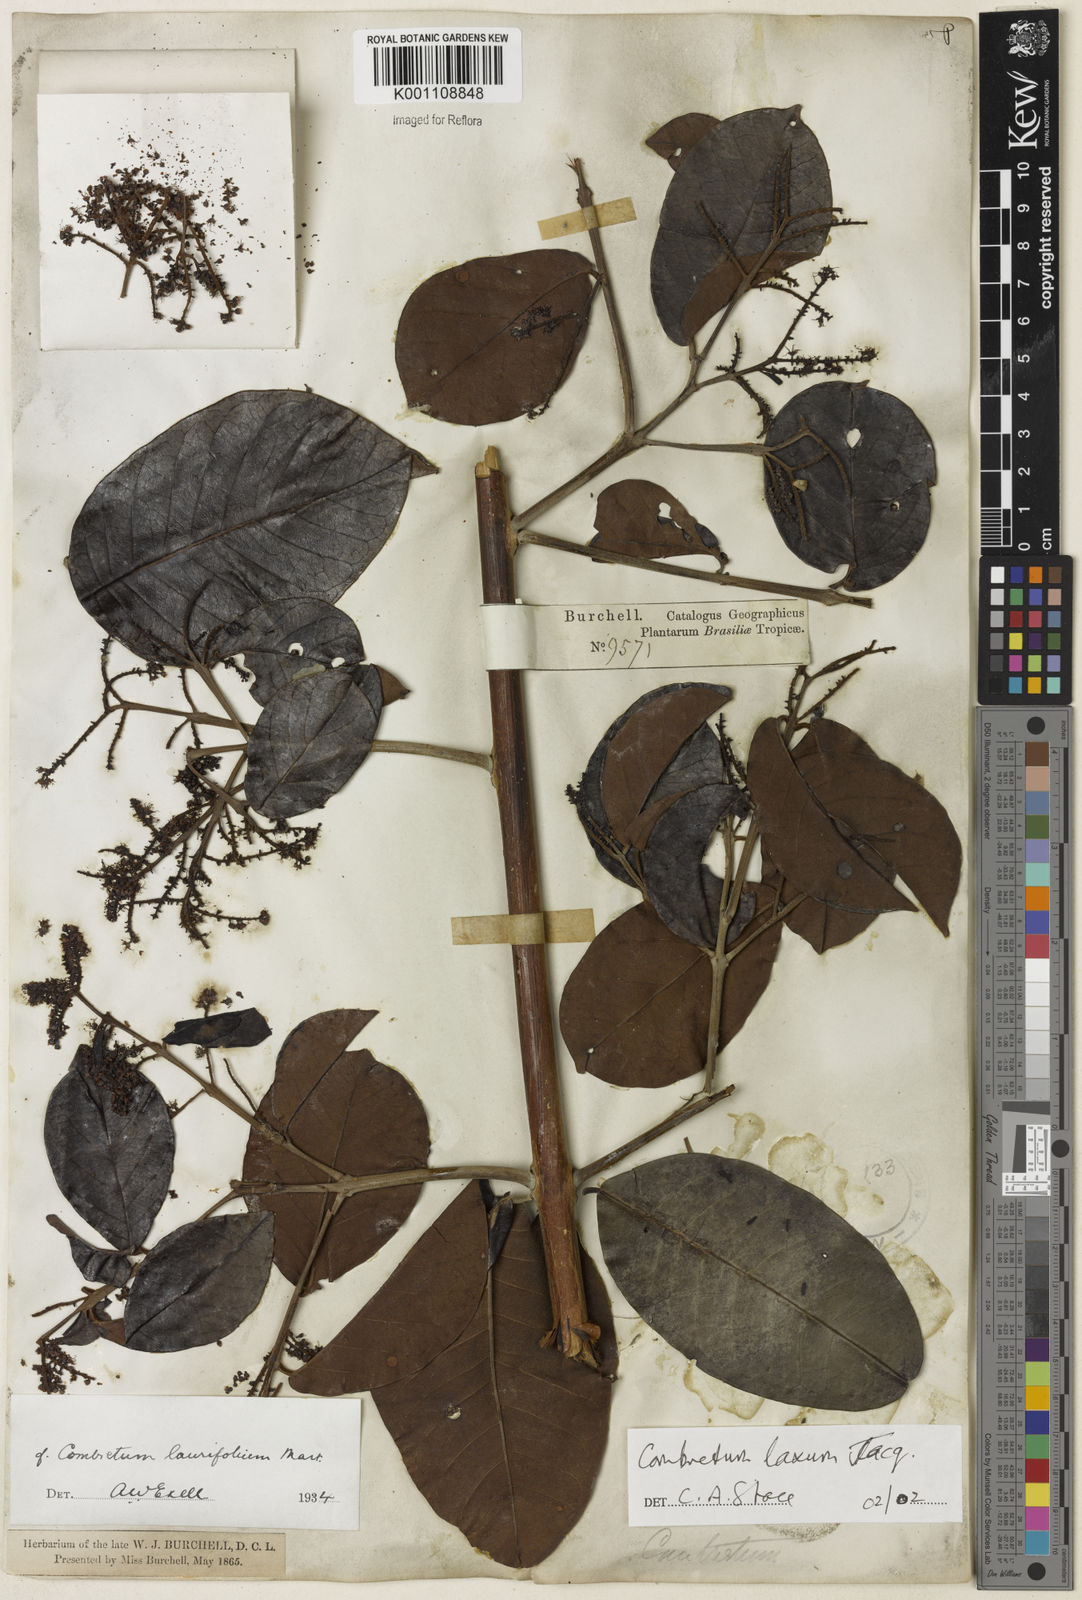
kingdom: Plantae
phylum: Tracheophyta
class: Magnoliopsida
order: Myrtales
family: Combretaceae
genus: Combretum
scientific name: Combretum laxum
